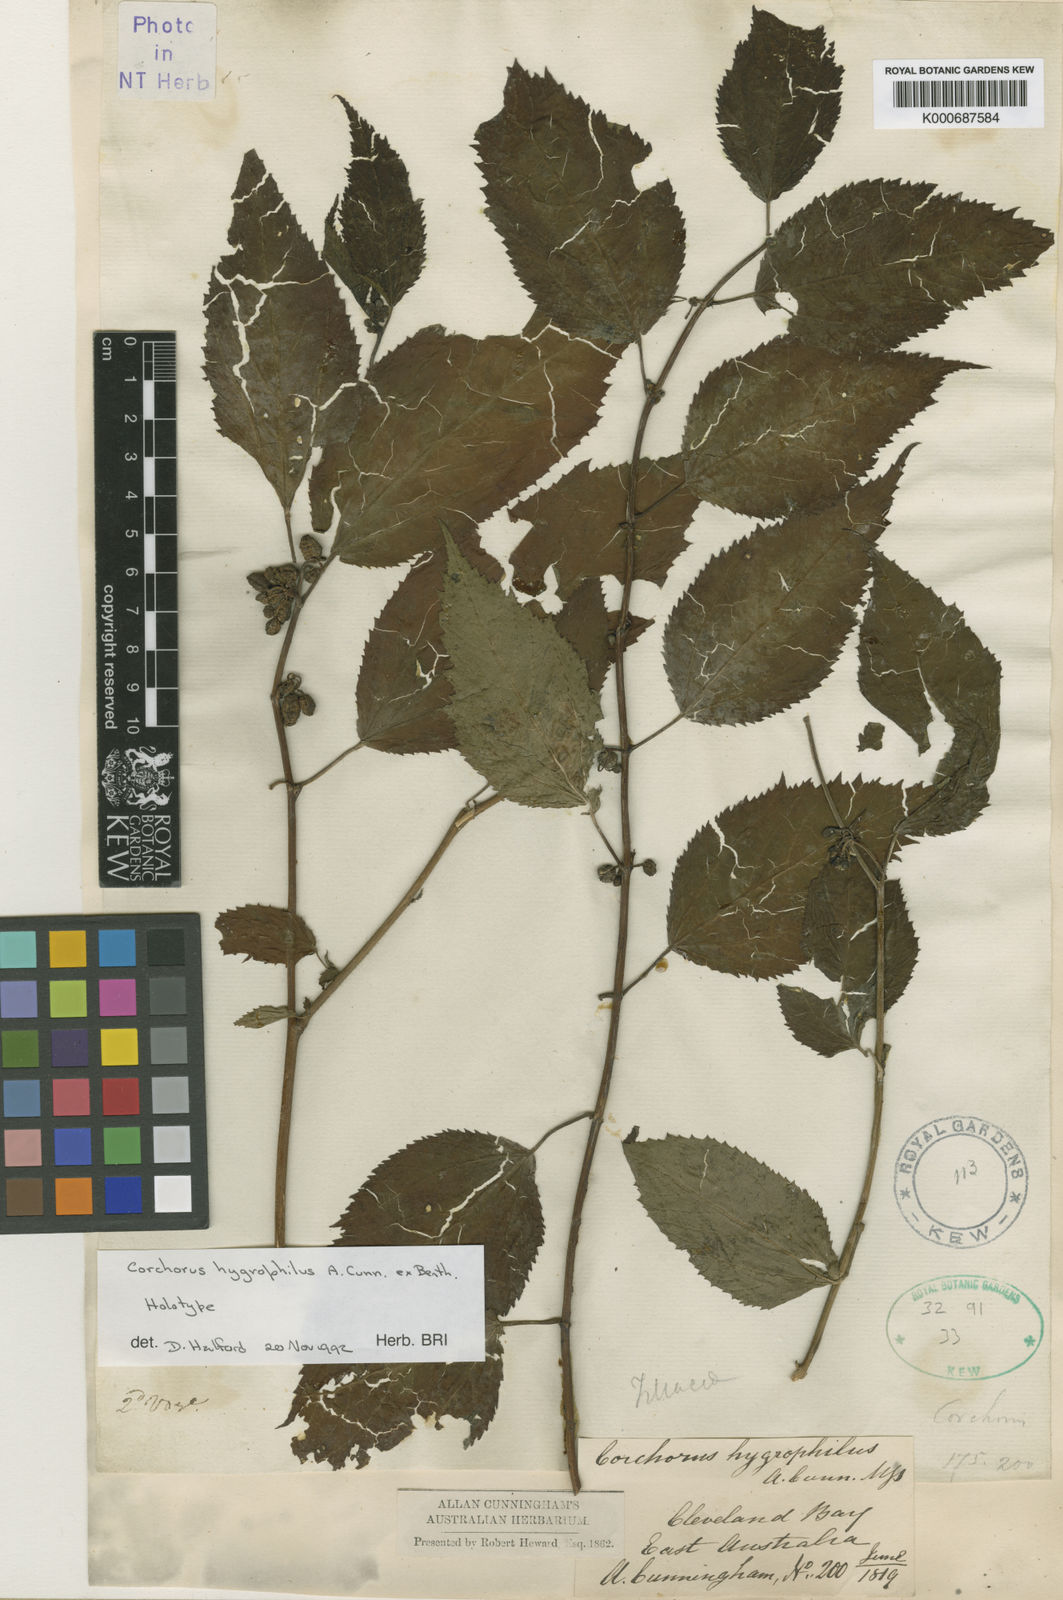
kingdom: Plantae
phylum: Tracheophyta
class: Magnoliopsida
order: Malvales
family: Malvaceae
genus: Corchorus
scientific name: Corchorus macropetalus
